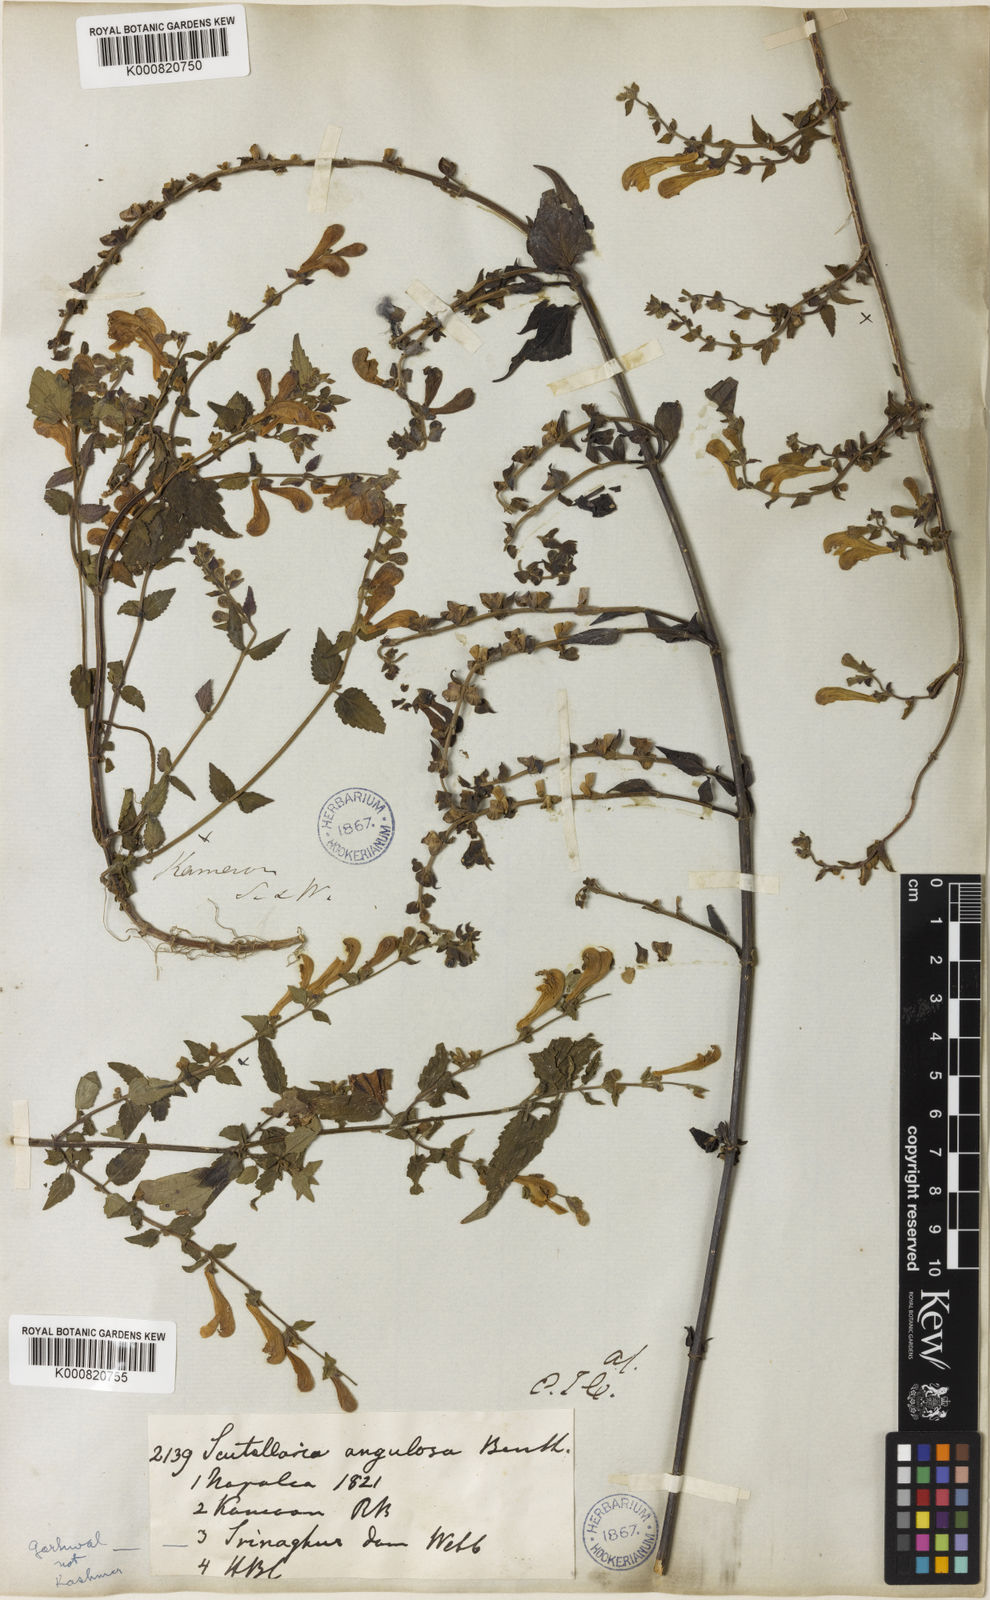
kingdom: Plantae
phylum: Tracheophyta
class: Magnoliopsida
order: Lamiales
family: Lamiaceae
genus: Scutellaria
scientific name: Scutellaria scandens
